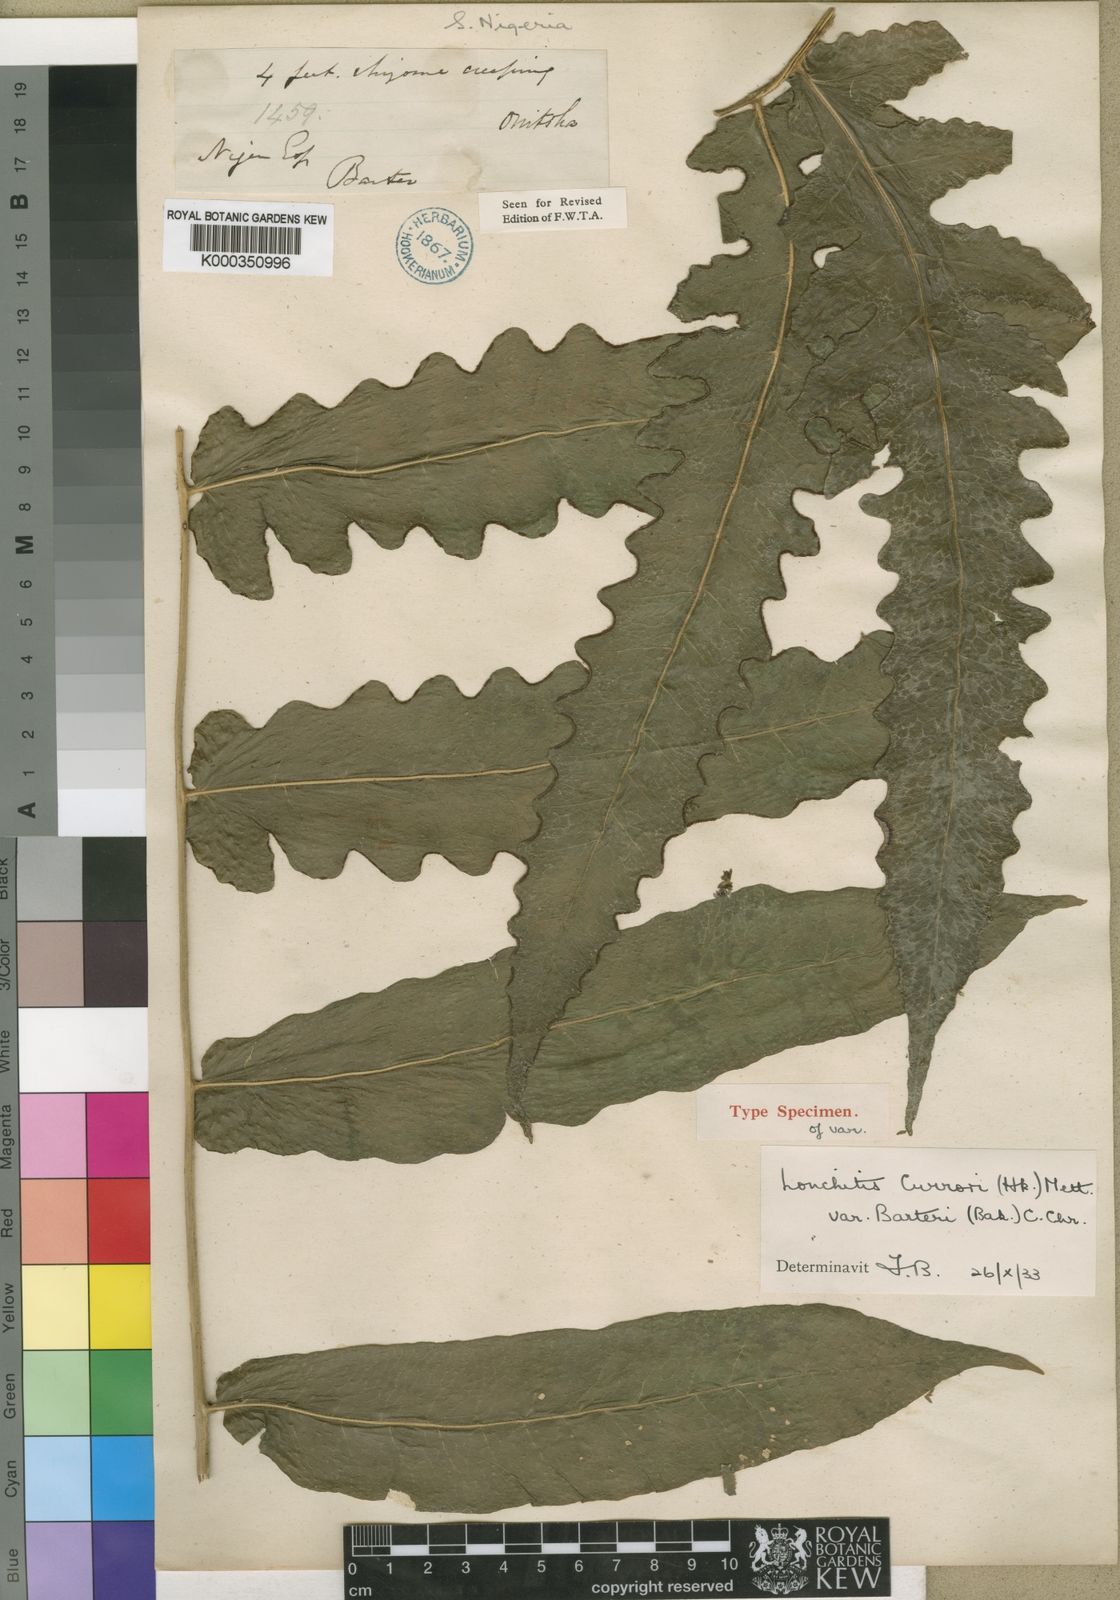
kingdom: Plantae
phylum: Tracheophyta
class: Polypodiopsida
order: Polypodiales
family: Dennstaedtiaceae
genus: Blotiella
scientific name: Blotiella currorii
